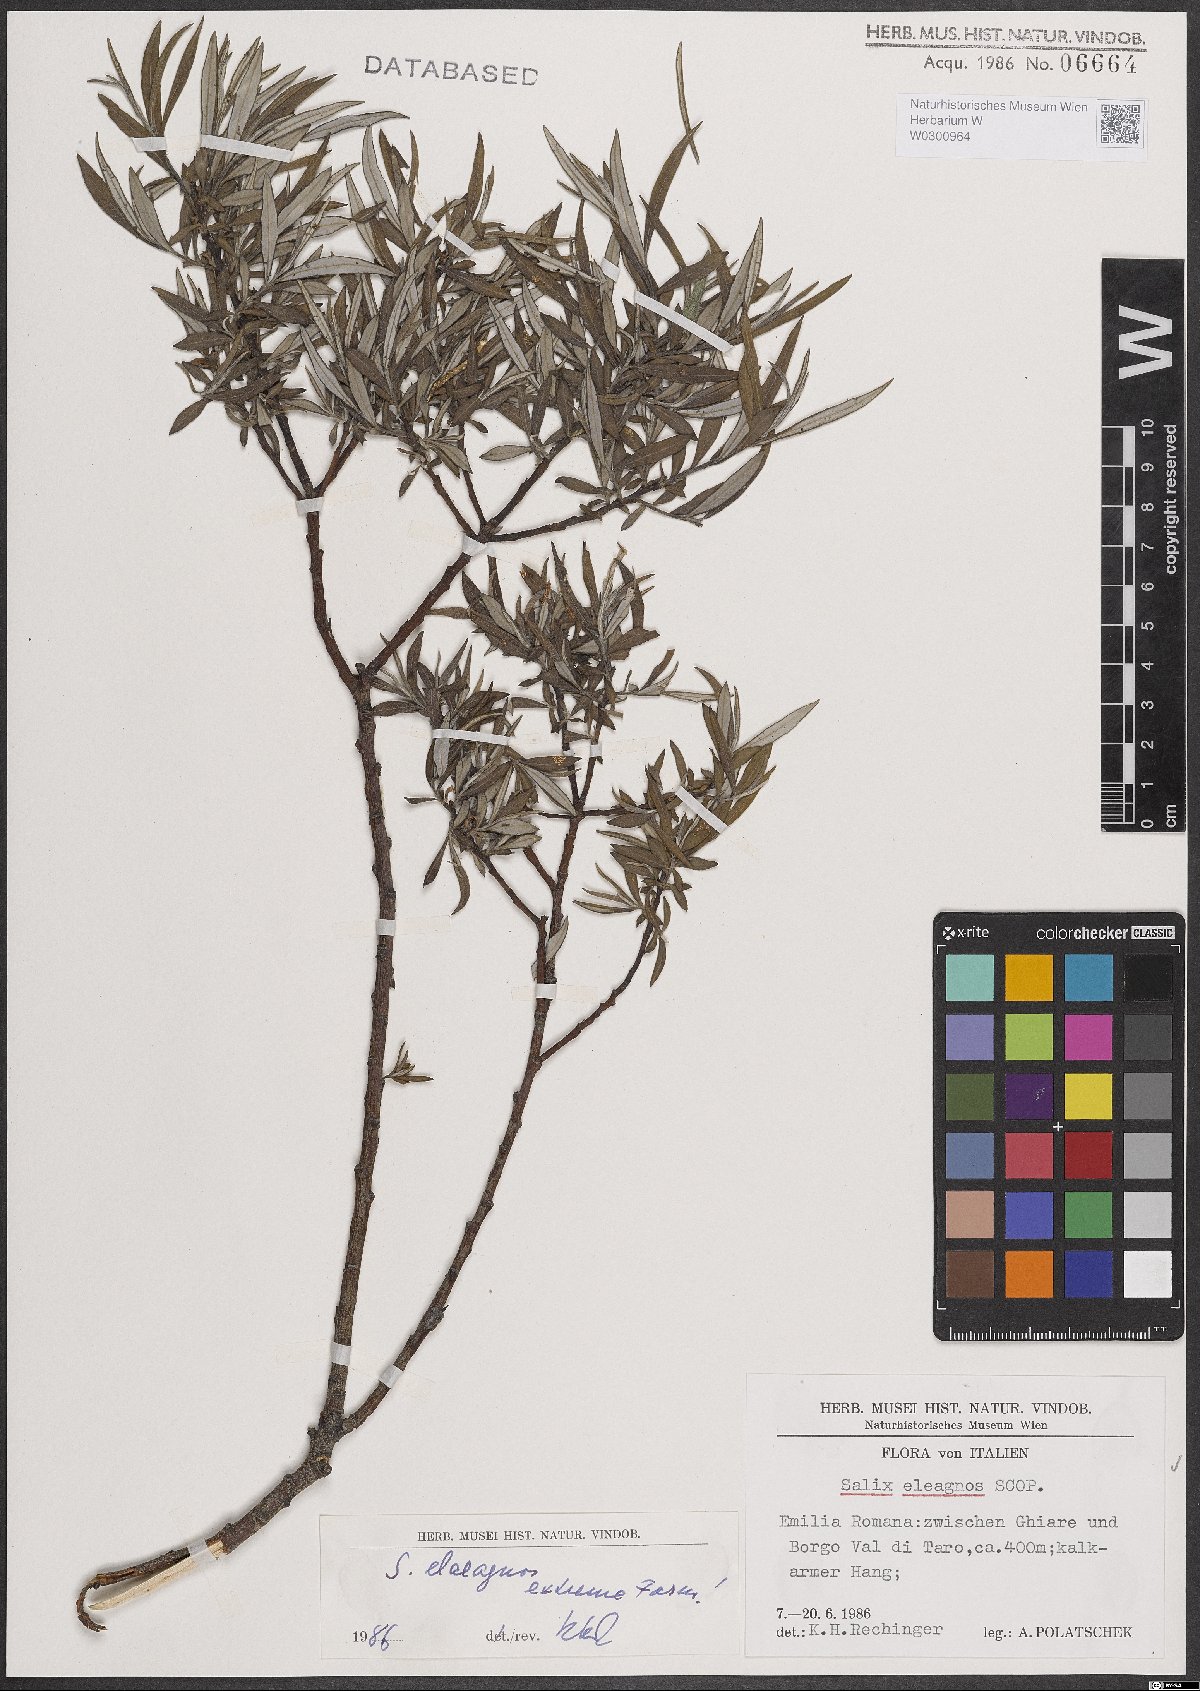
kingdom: Plantae
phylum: Tracheophyta
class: Magnoliopsida
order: Malpighiales
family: Salicaceae
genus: Salix
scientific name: Salix eleagnos
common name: Elaeagnus willow
